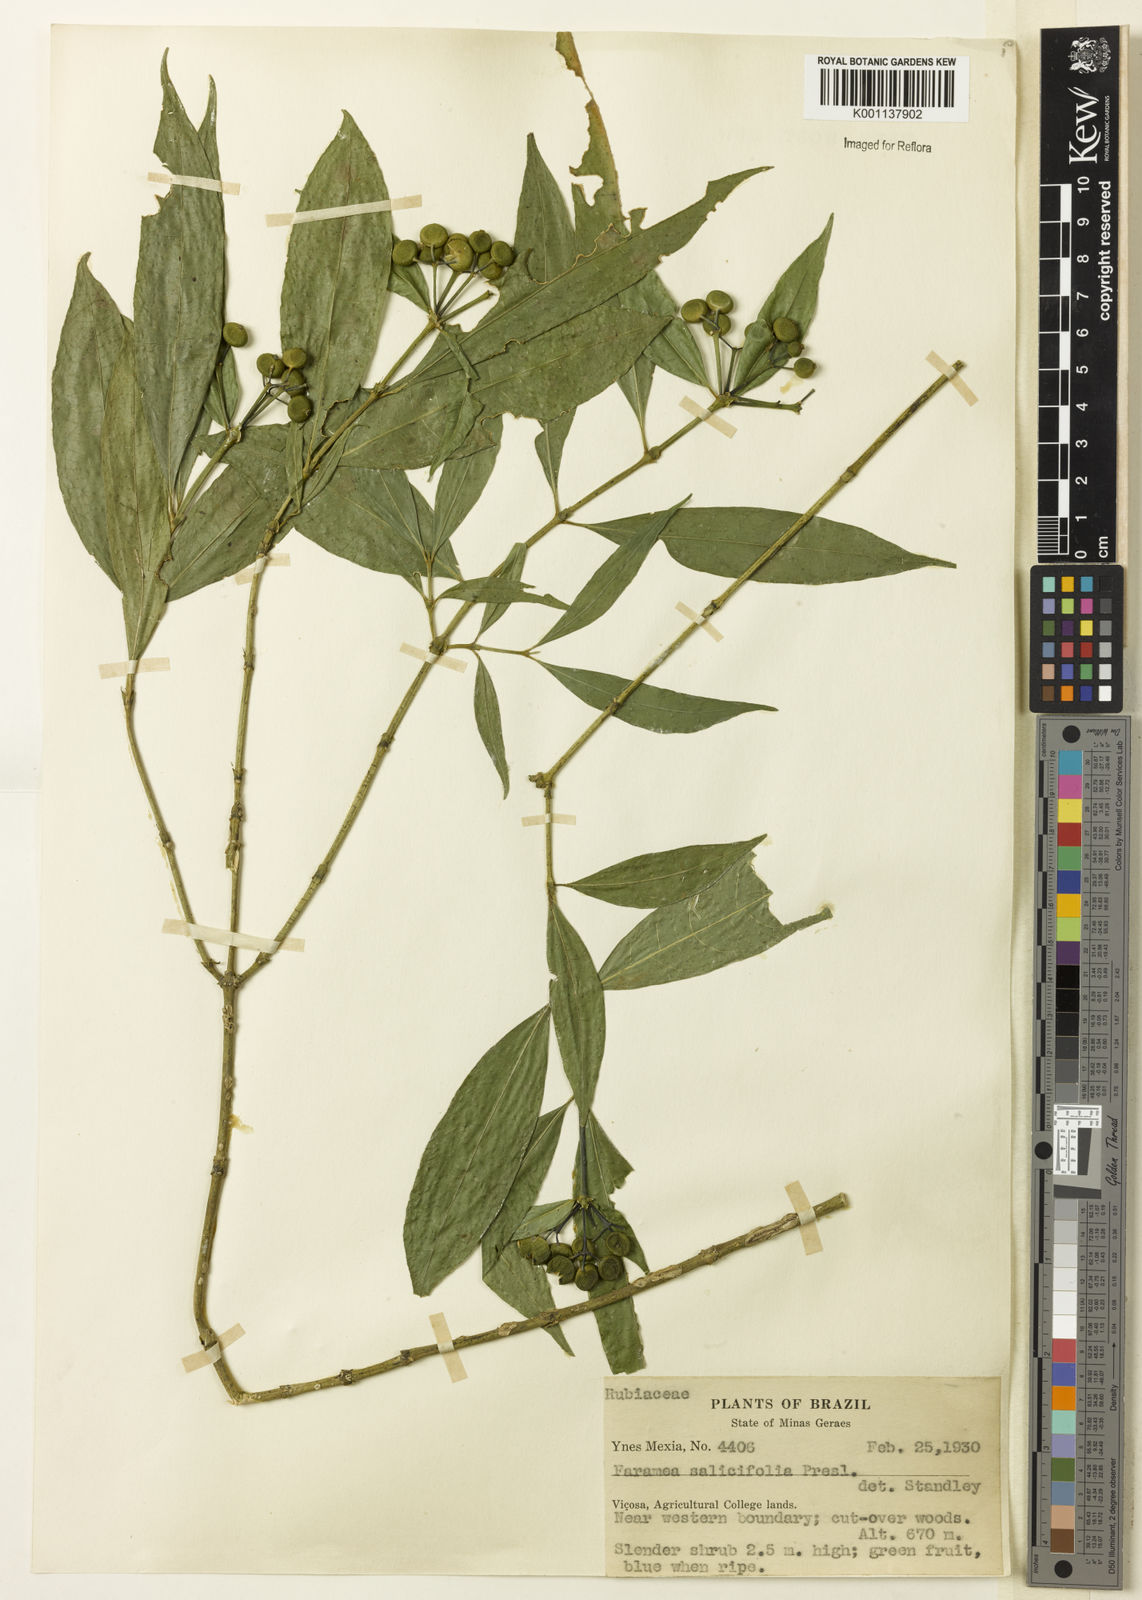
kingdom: Plantae
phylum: Tracheophyta
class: Magnoliopsida
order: Gentianales
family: Rubiaceae
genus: Faramea
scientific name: Faramea multiflora
